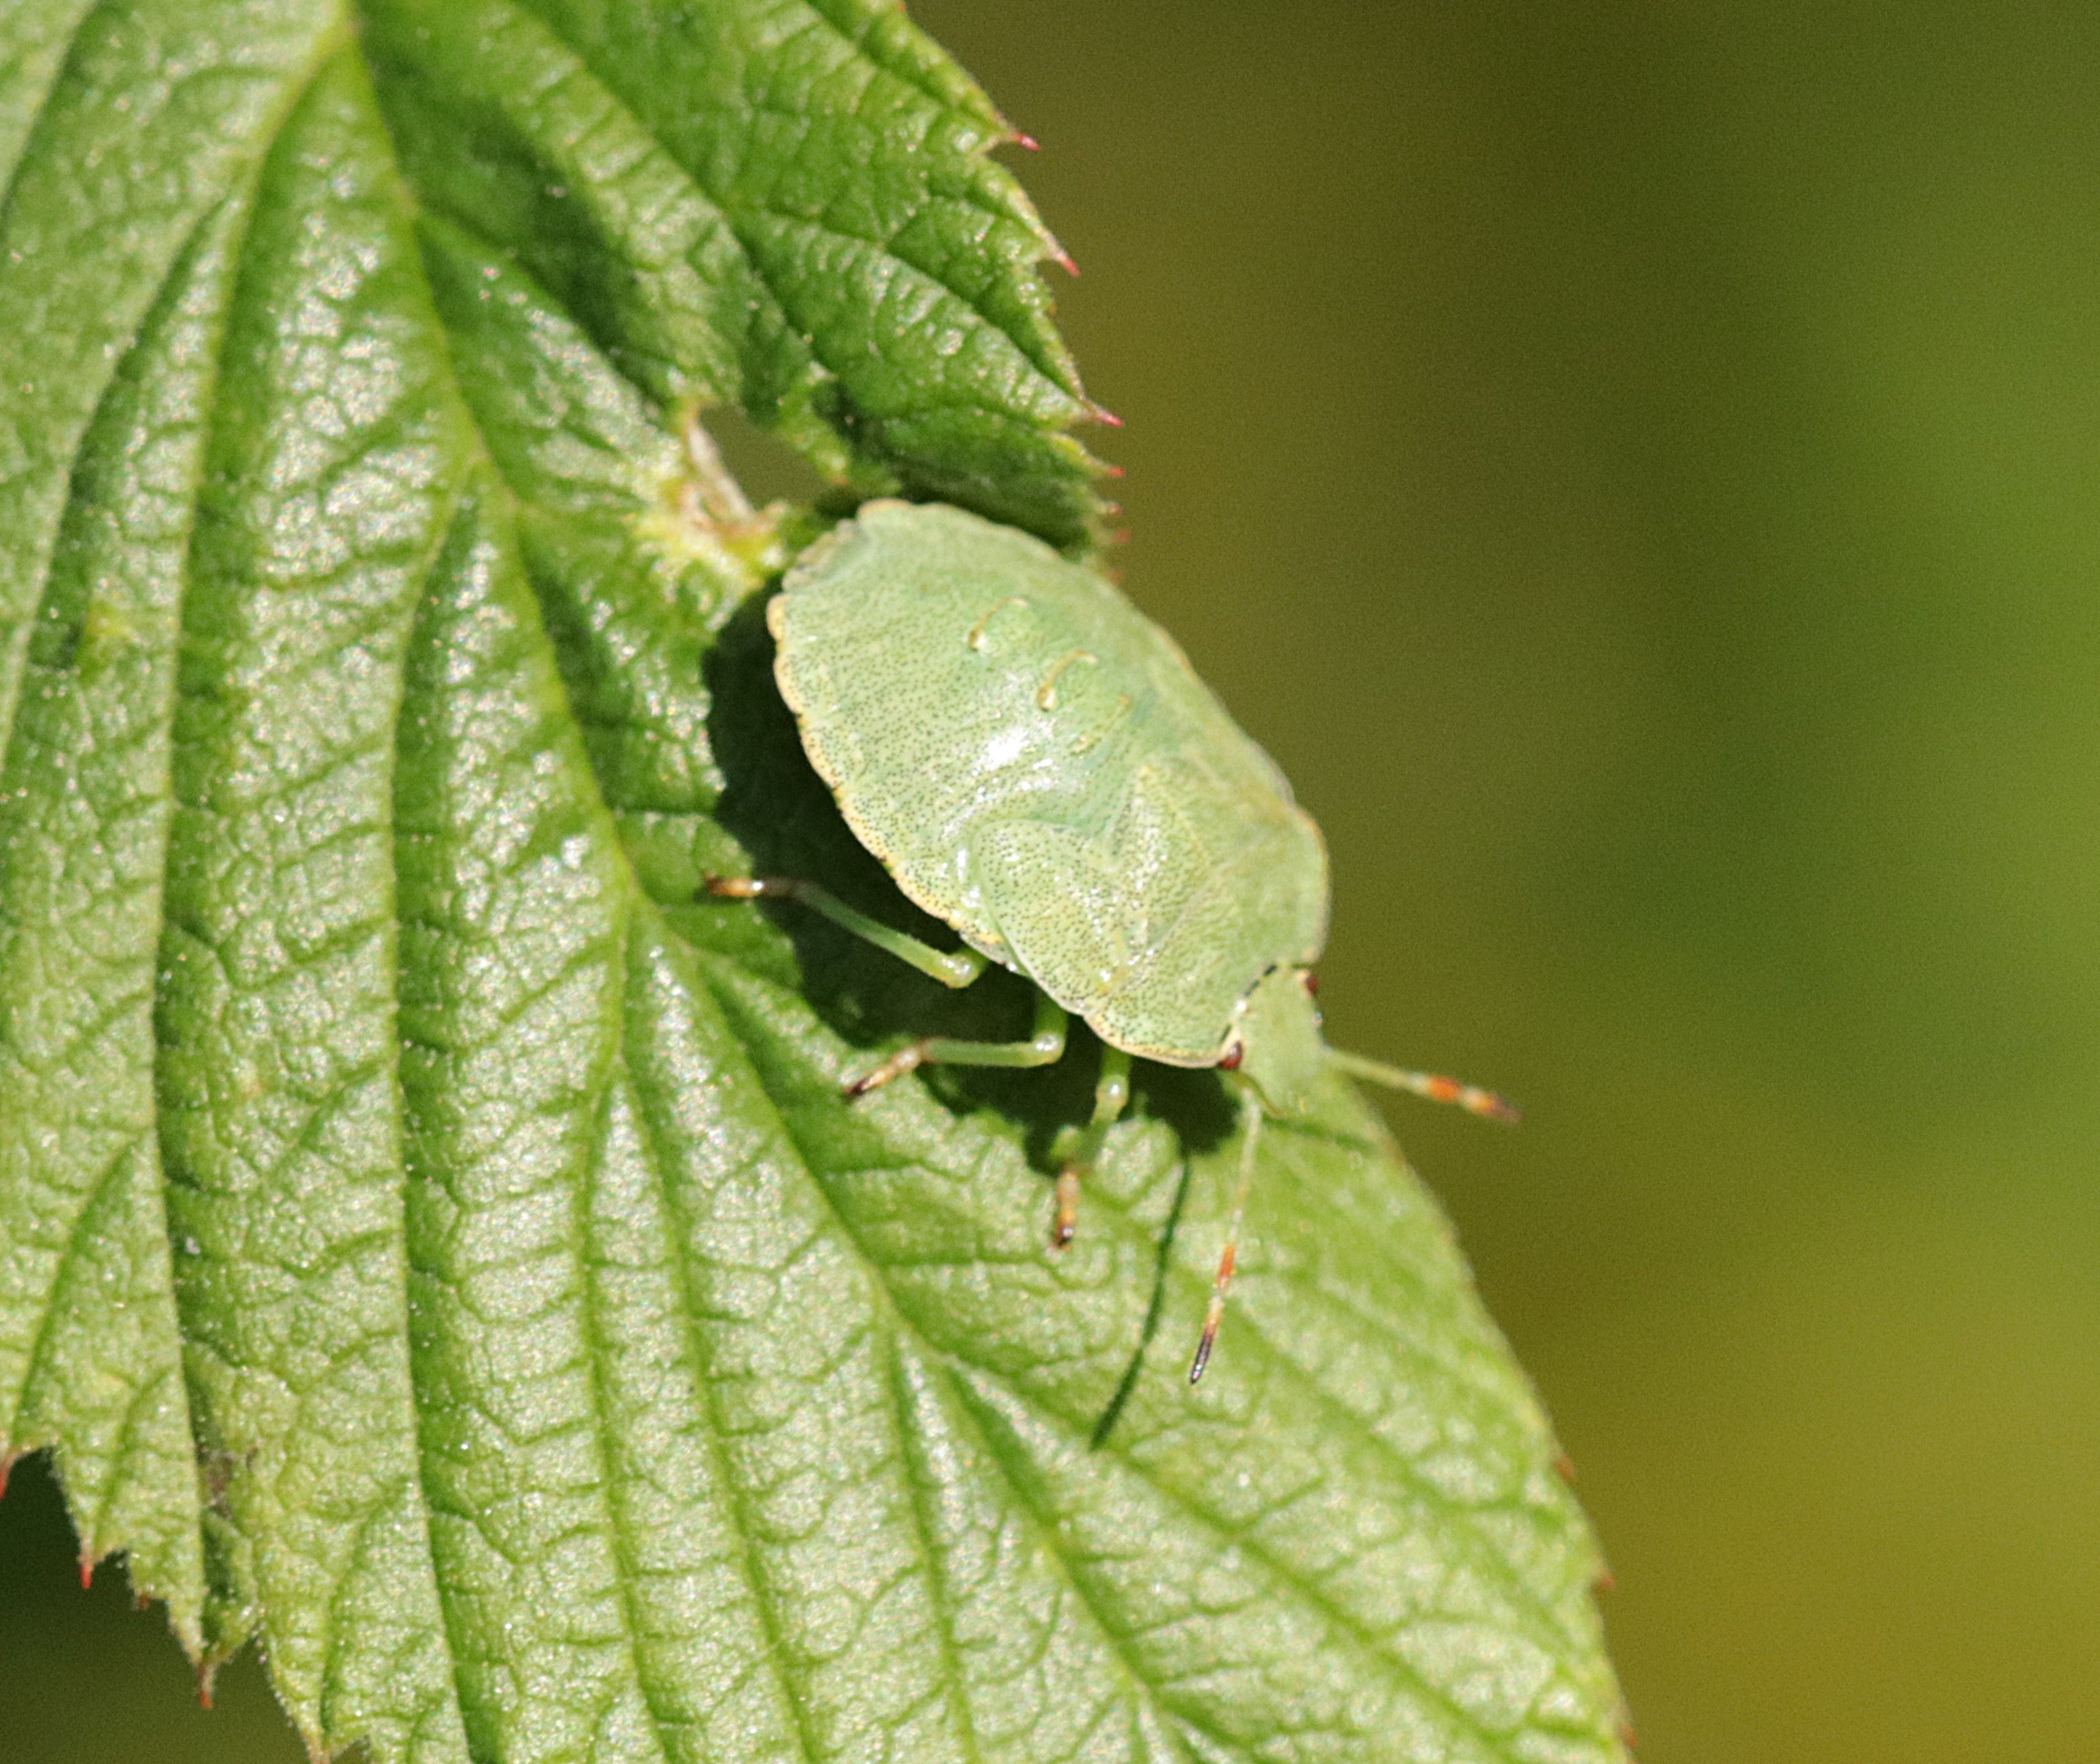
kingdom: Animalia
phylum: Arthropoda
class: Insecta
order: Hemiptera
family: Pentatomidae
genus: Palomena
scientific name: Palomena prasina
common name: Grøn bredtæge
